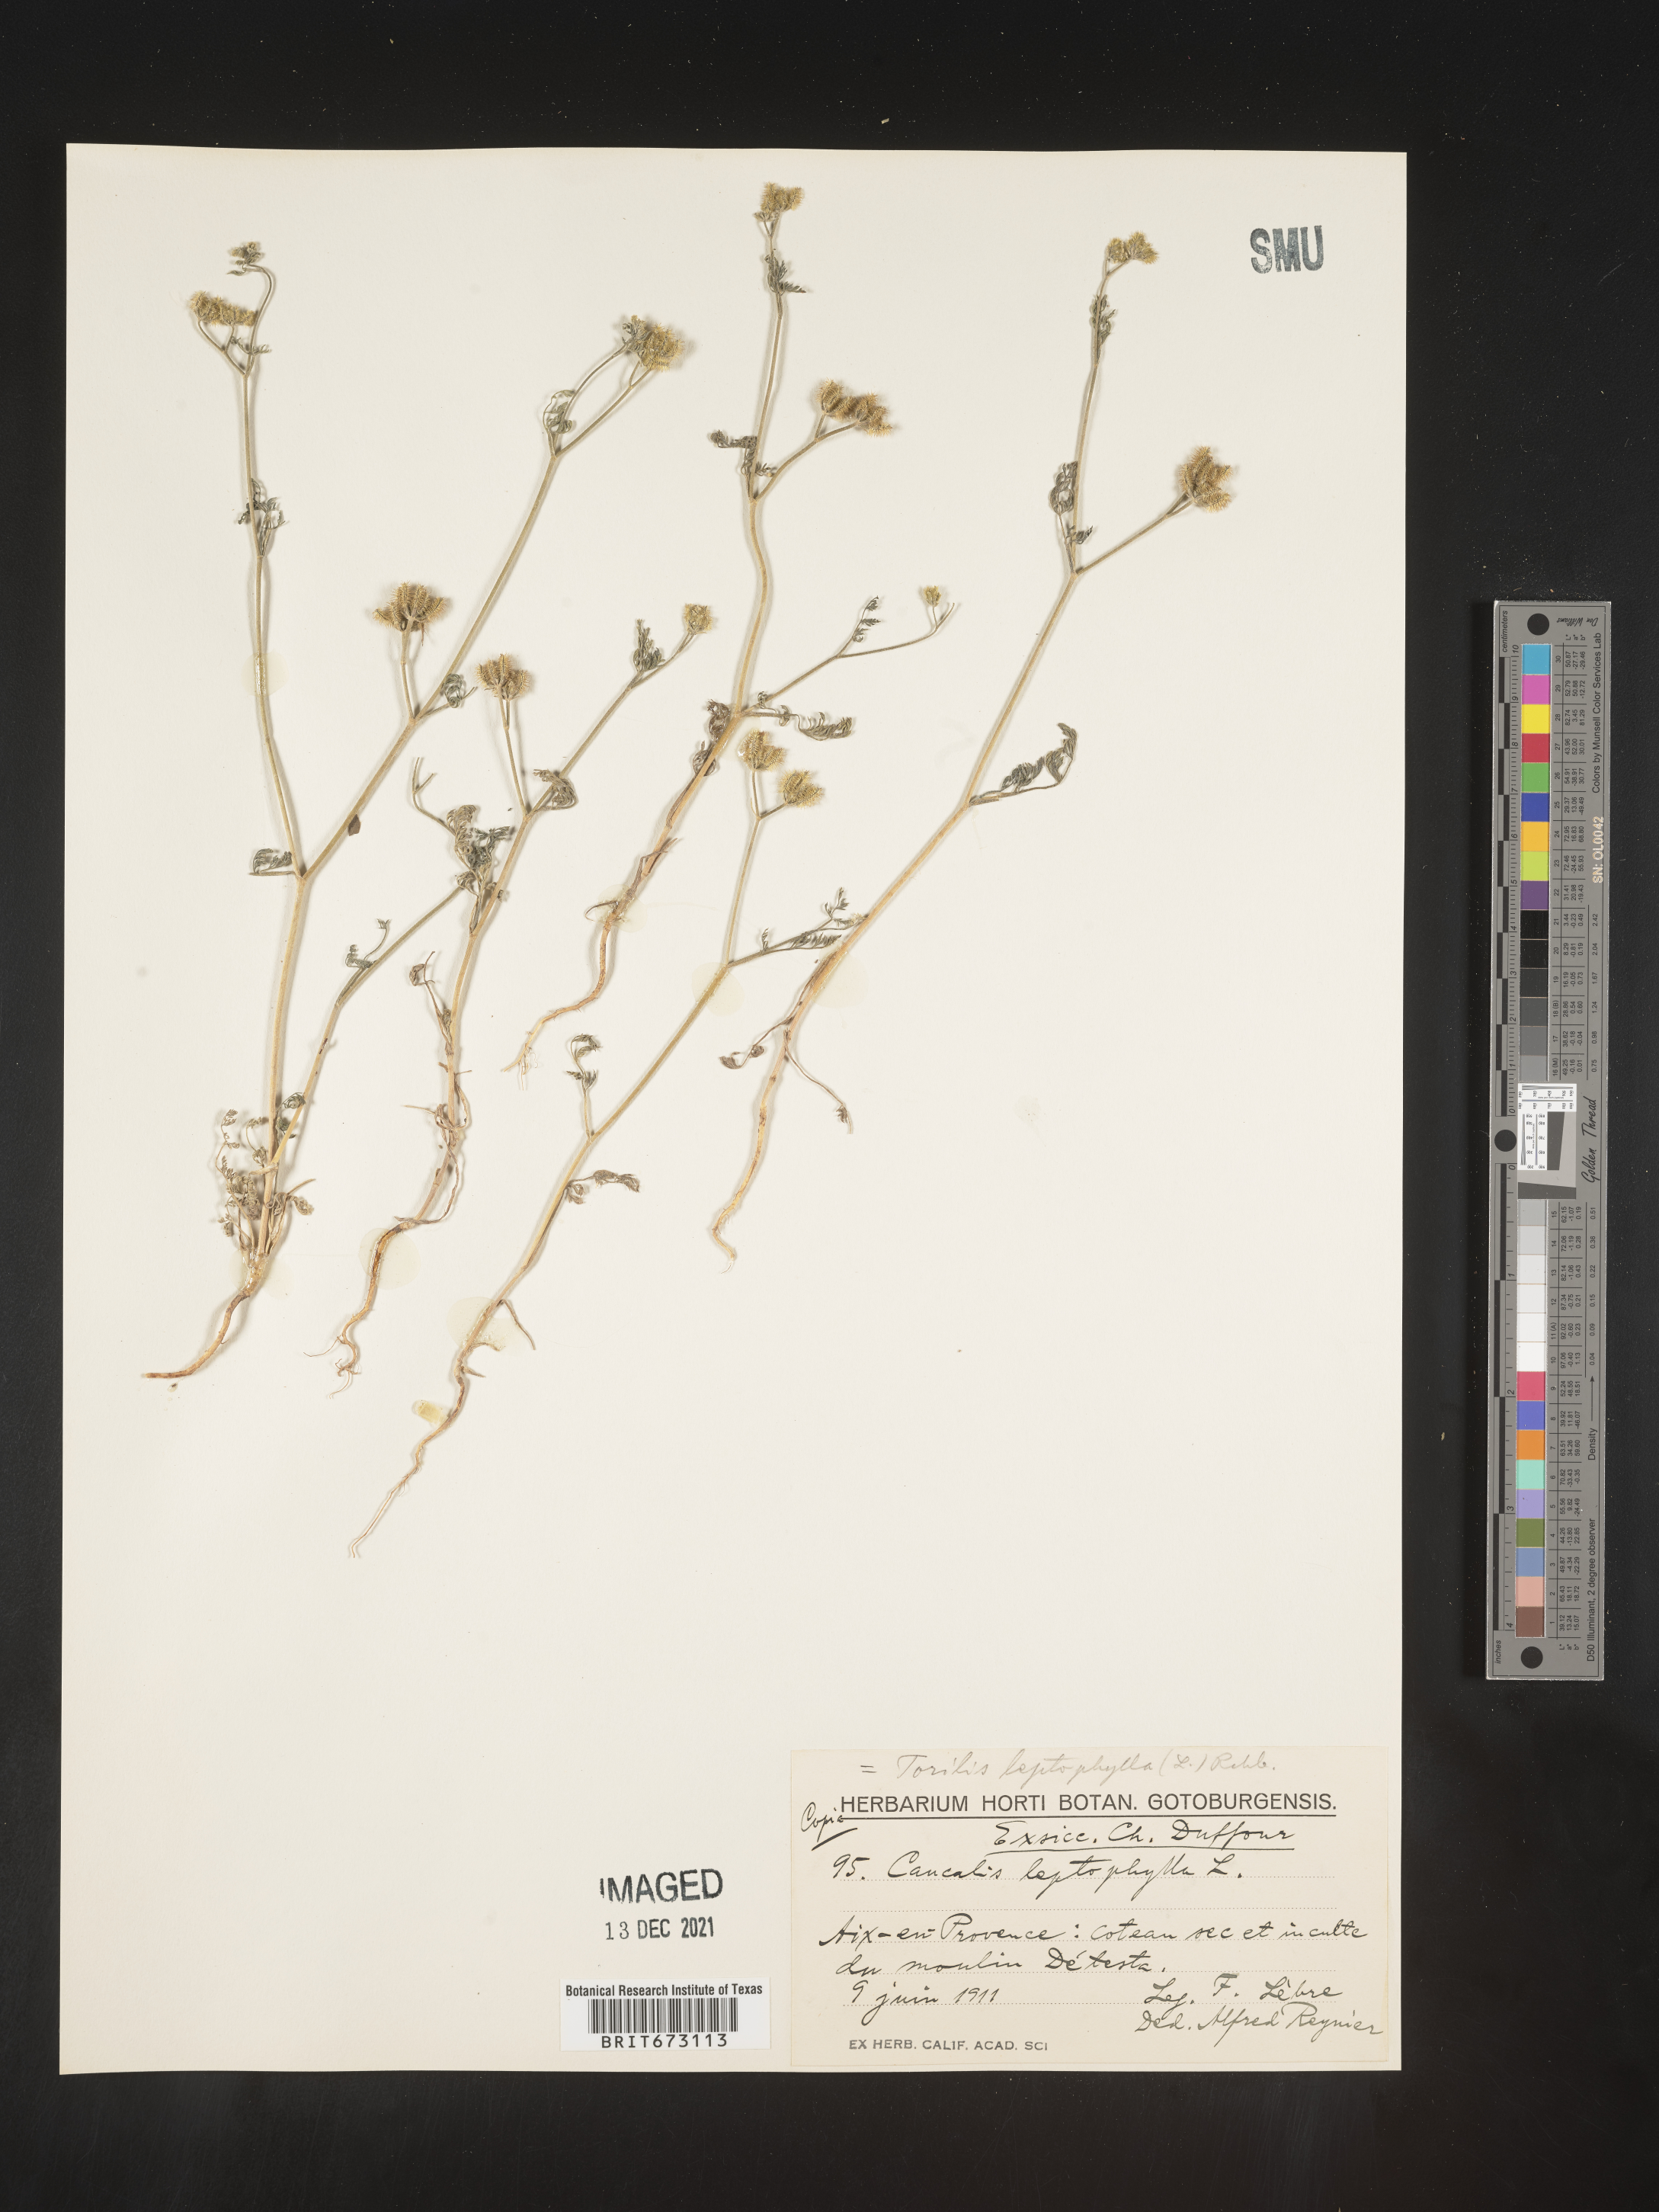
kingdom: Plantae
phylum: Tracheophyta
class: Magnoliopsida
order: Apiales
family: Apiaceae
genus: Torilis
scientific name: Torilis
